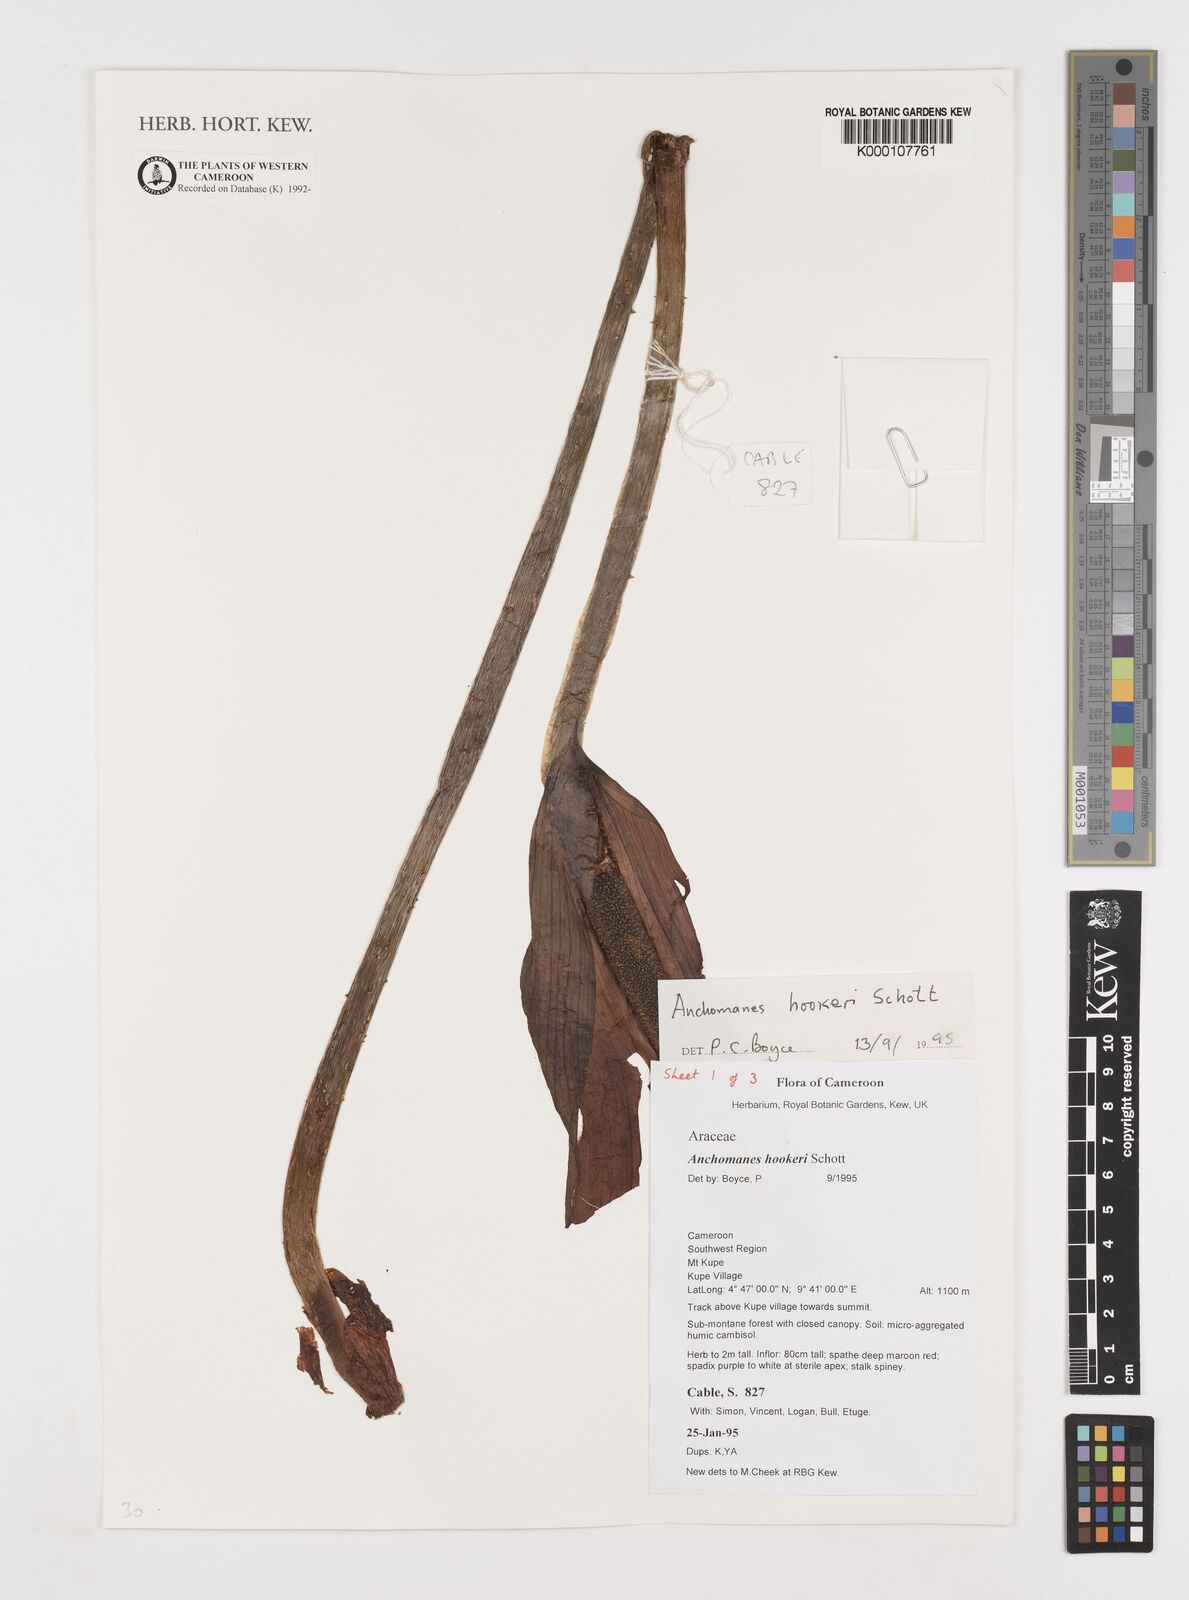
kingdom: Plantae
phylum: Tracheophyta
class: Liliopsida
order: Alismatales
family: Araceae
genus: Anchomanes
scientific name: Anchomanes difformis
